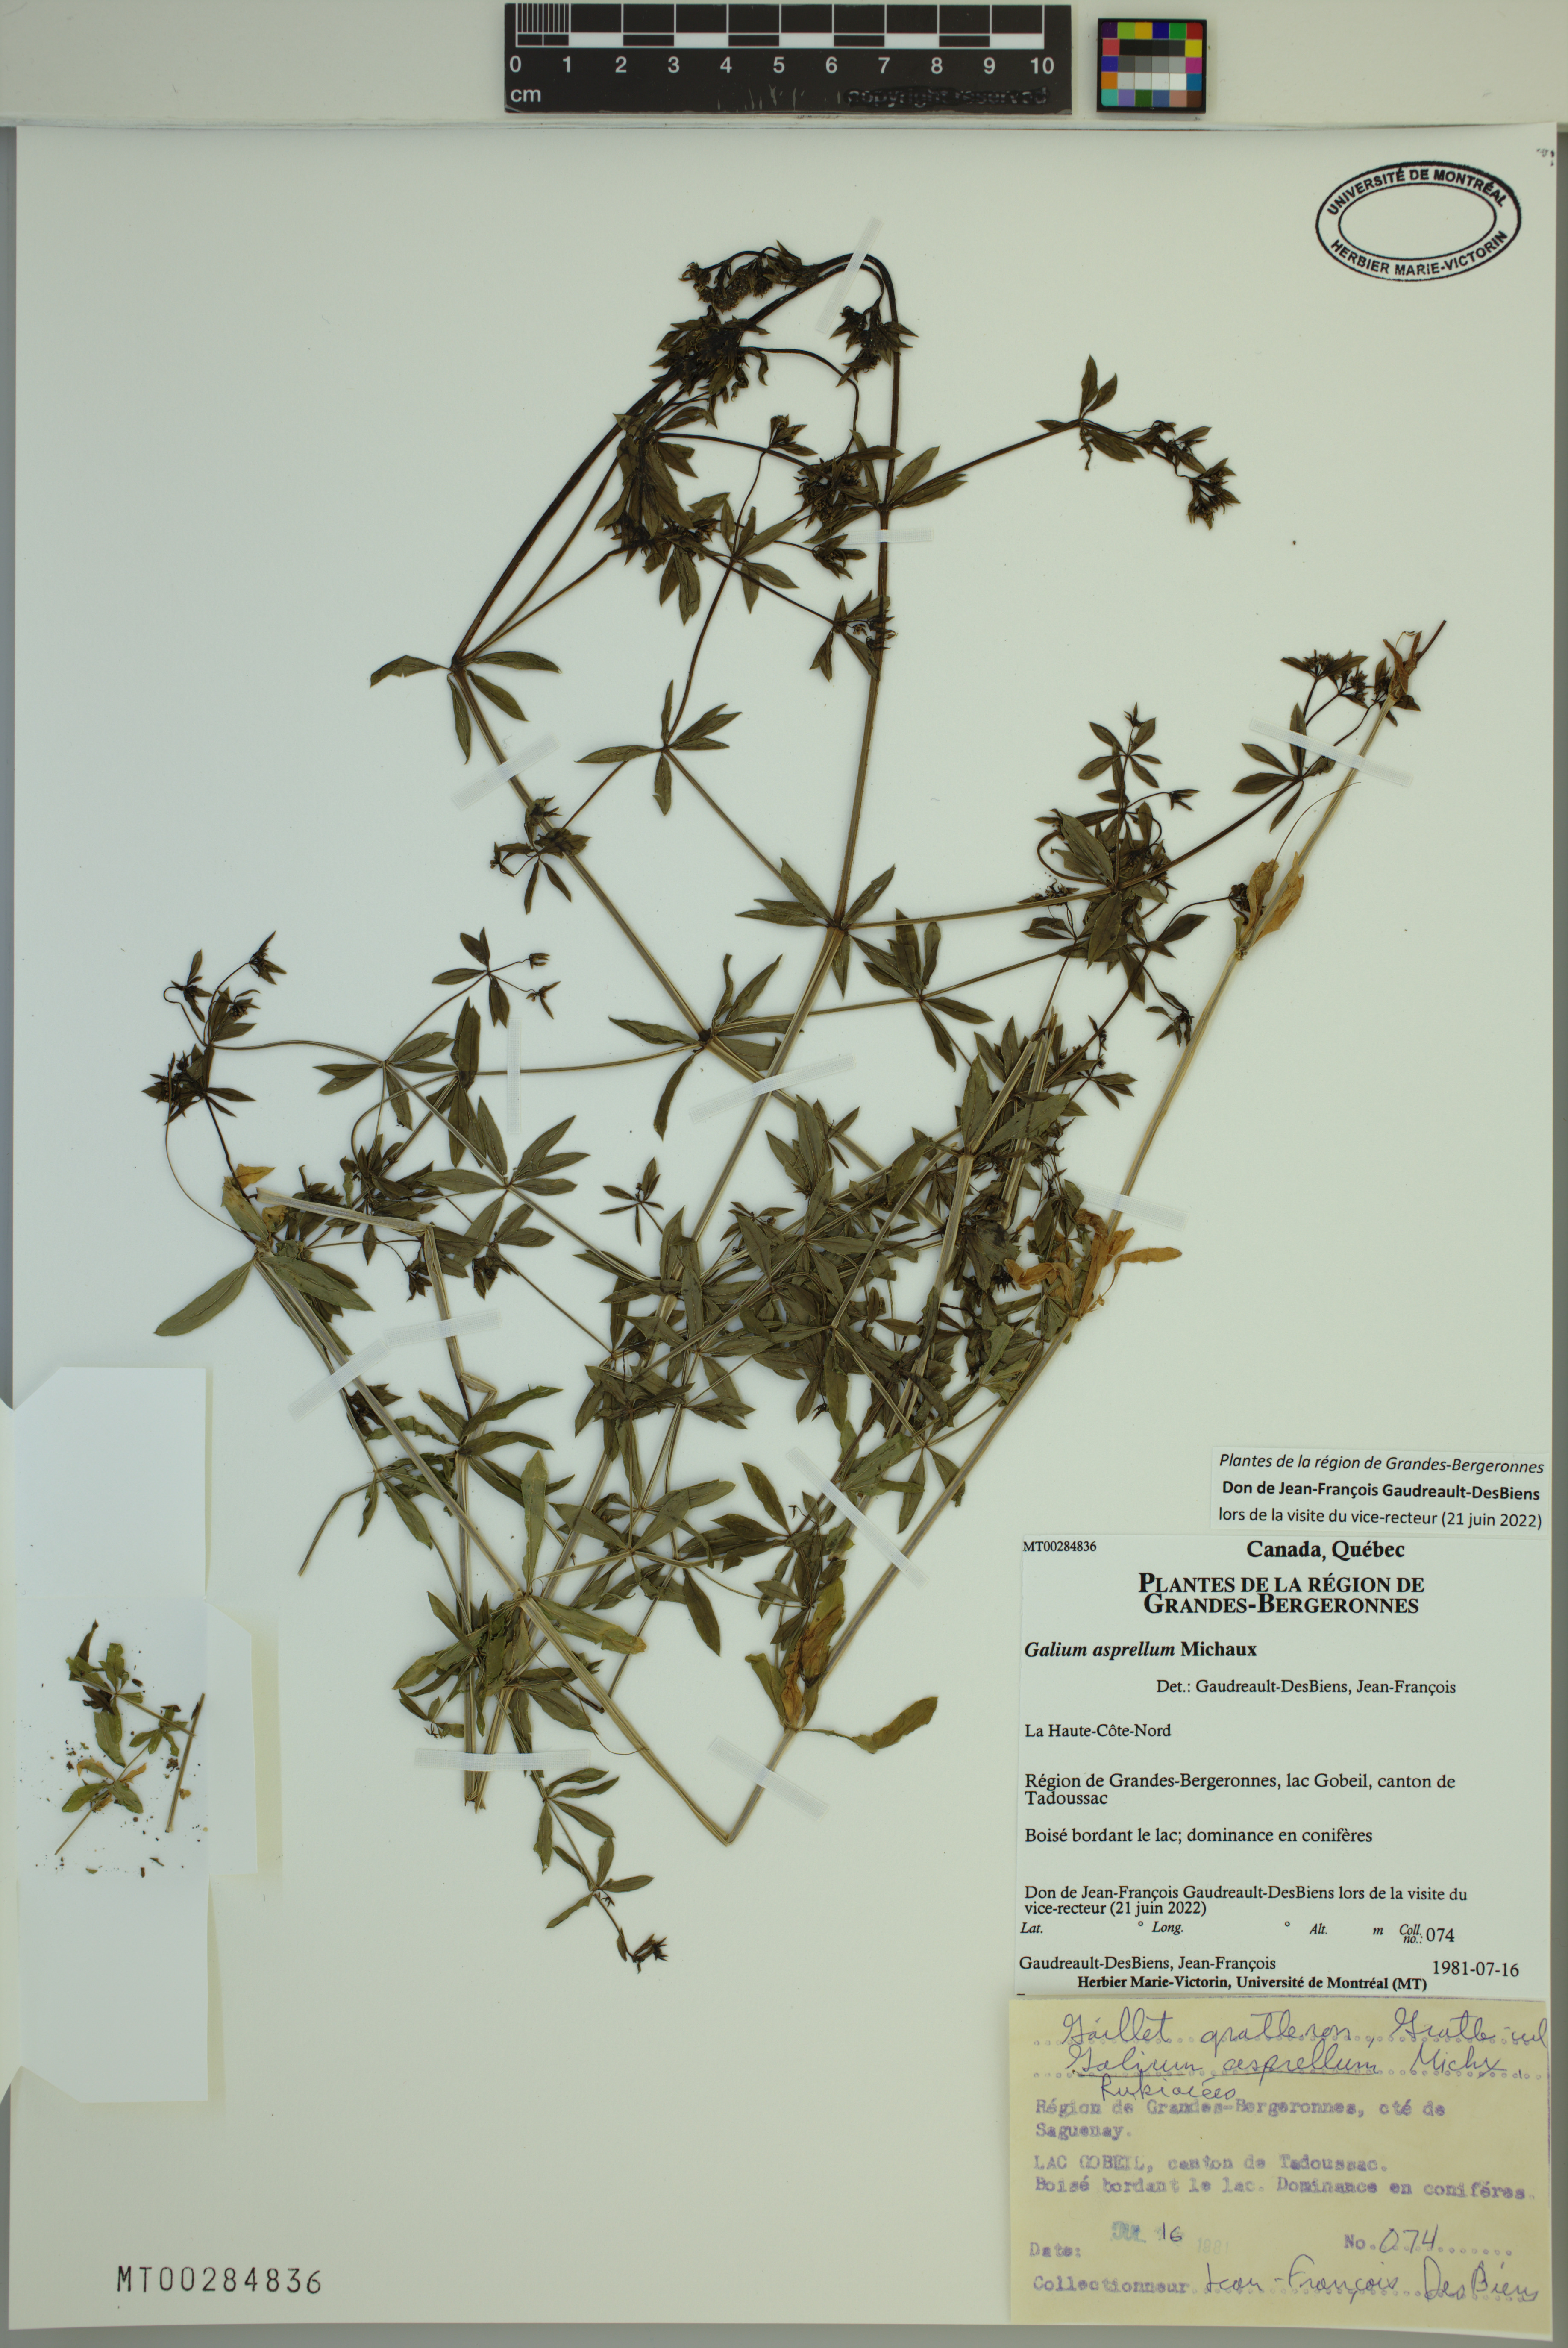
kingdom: Plantae
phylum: Tracheophyta
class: Magnoliopsida
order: Gentianales
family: Rubiaceae
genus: Galium
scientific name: Galium asprellum
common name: Rough bedstraw
